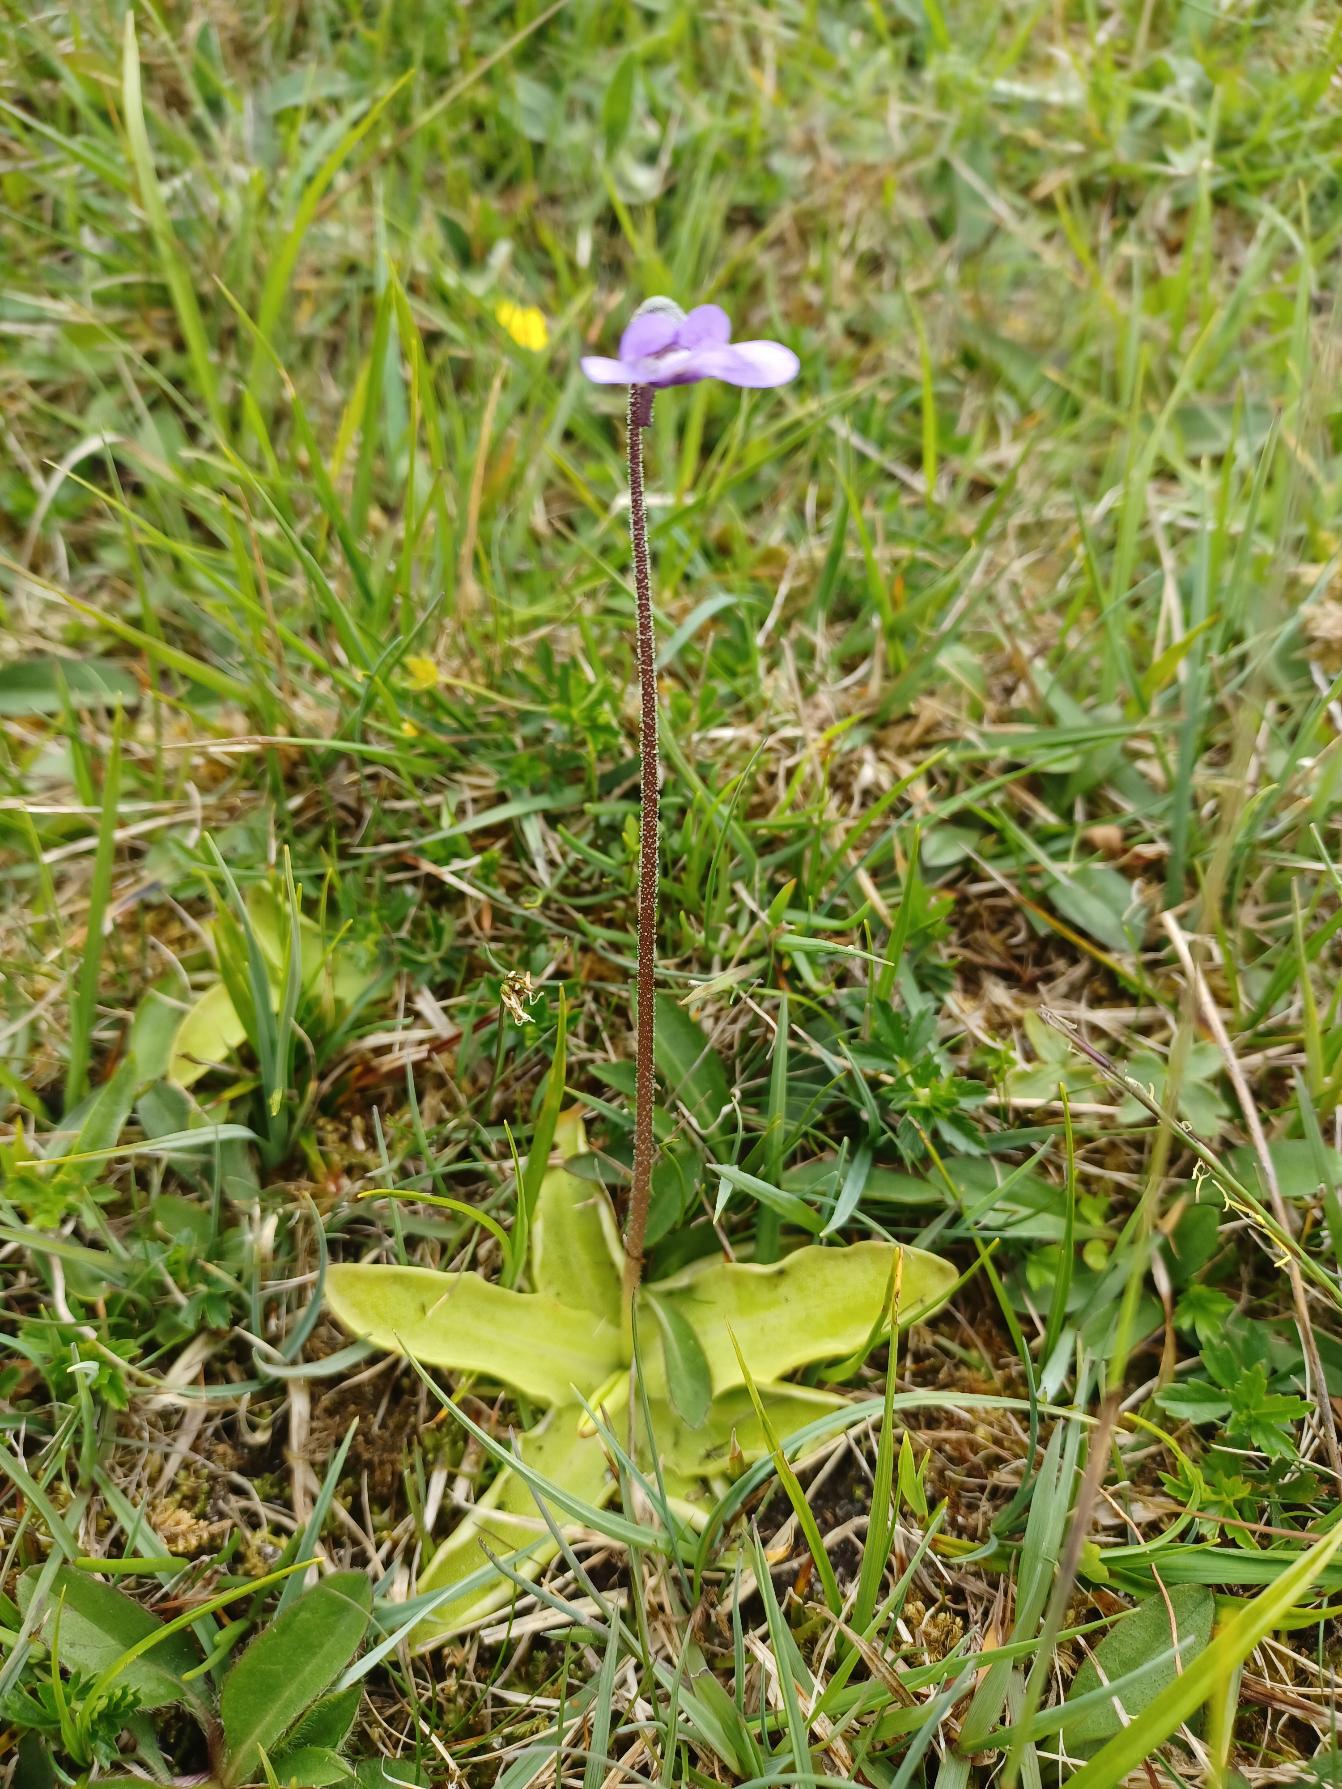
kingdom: Plantae
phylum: Tracheophyta
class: Magnoliopsida
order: Lamiales
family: Lentibulariaceae
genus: Pinguicula
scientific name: Pinguicula vulgaris
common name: Vibefedt
